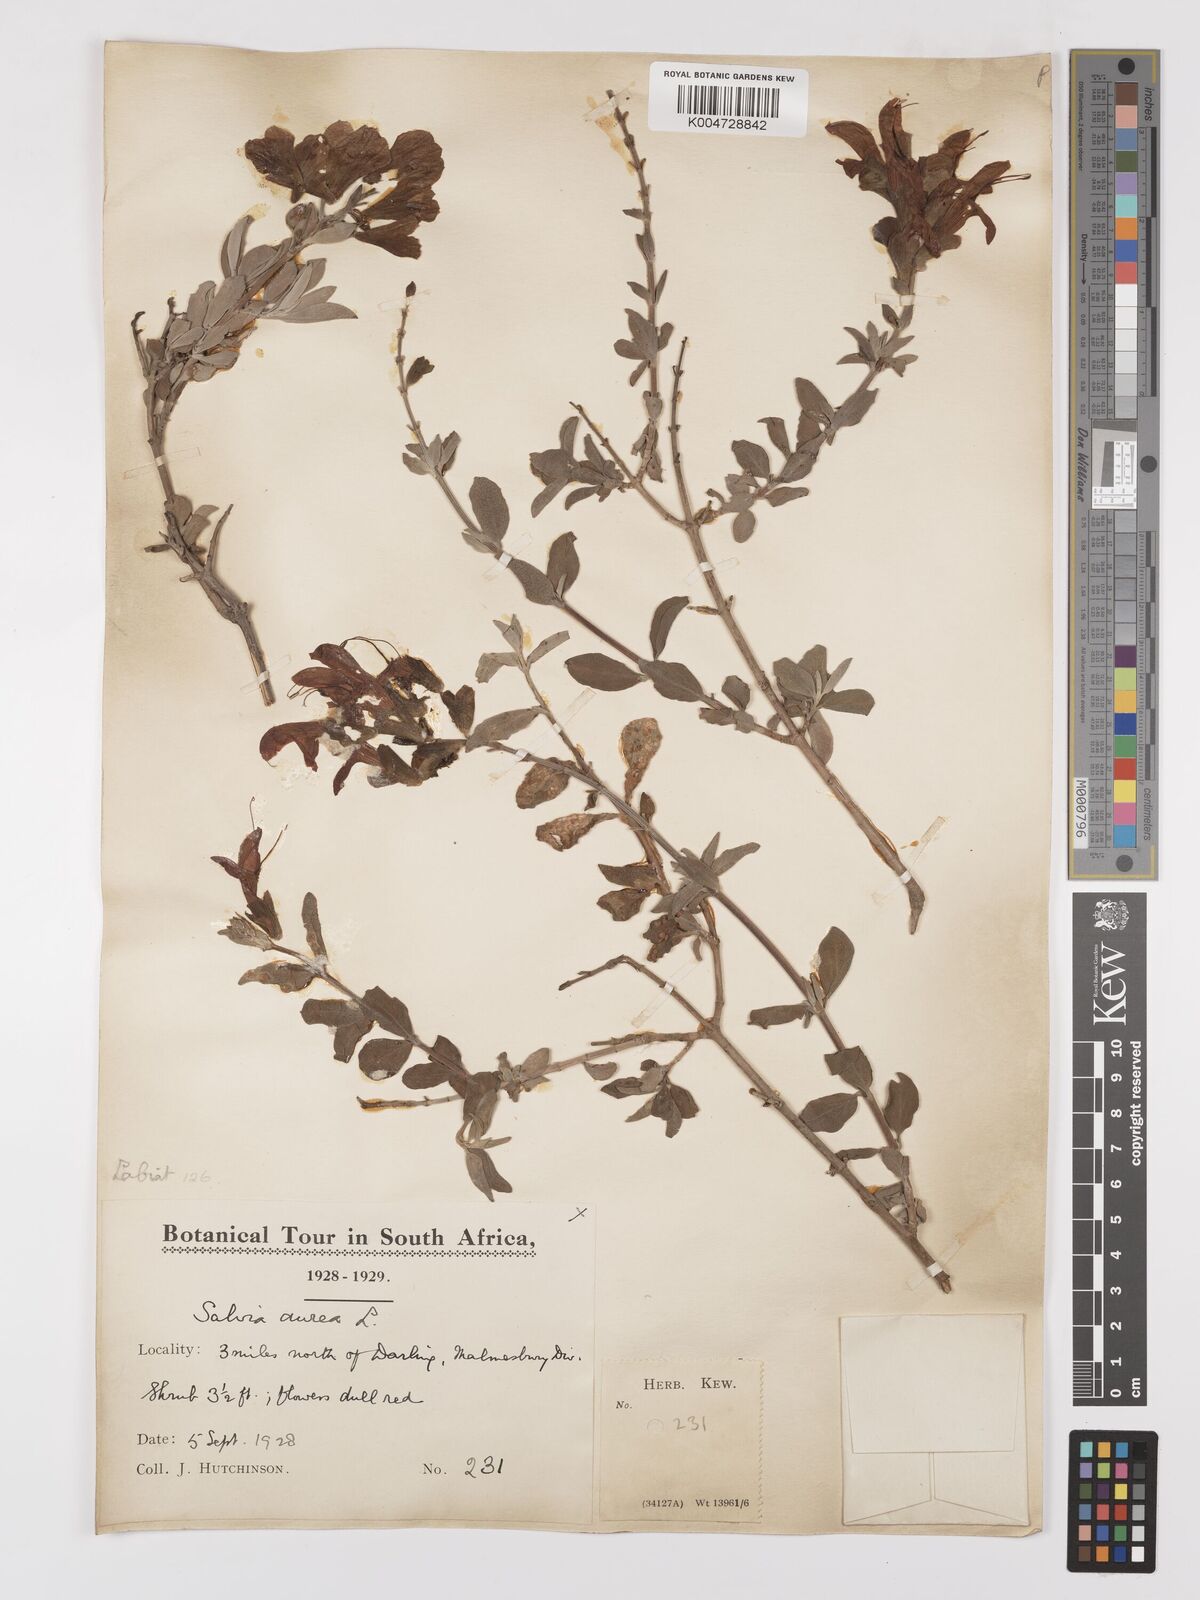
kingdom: Plantae
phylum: Tracheophyta
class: Magnoliopsida
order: Lamiales
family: Lamiaceae
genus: Salvia
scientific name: Salvia aurea
